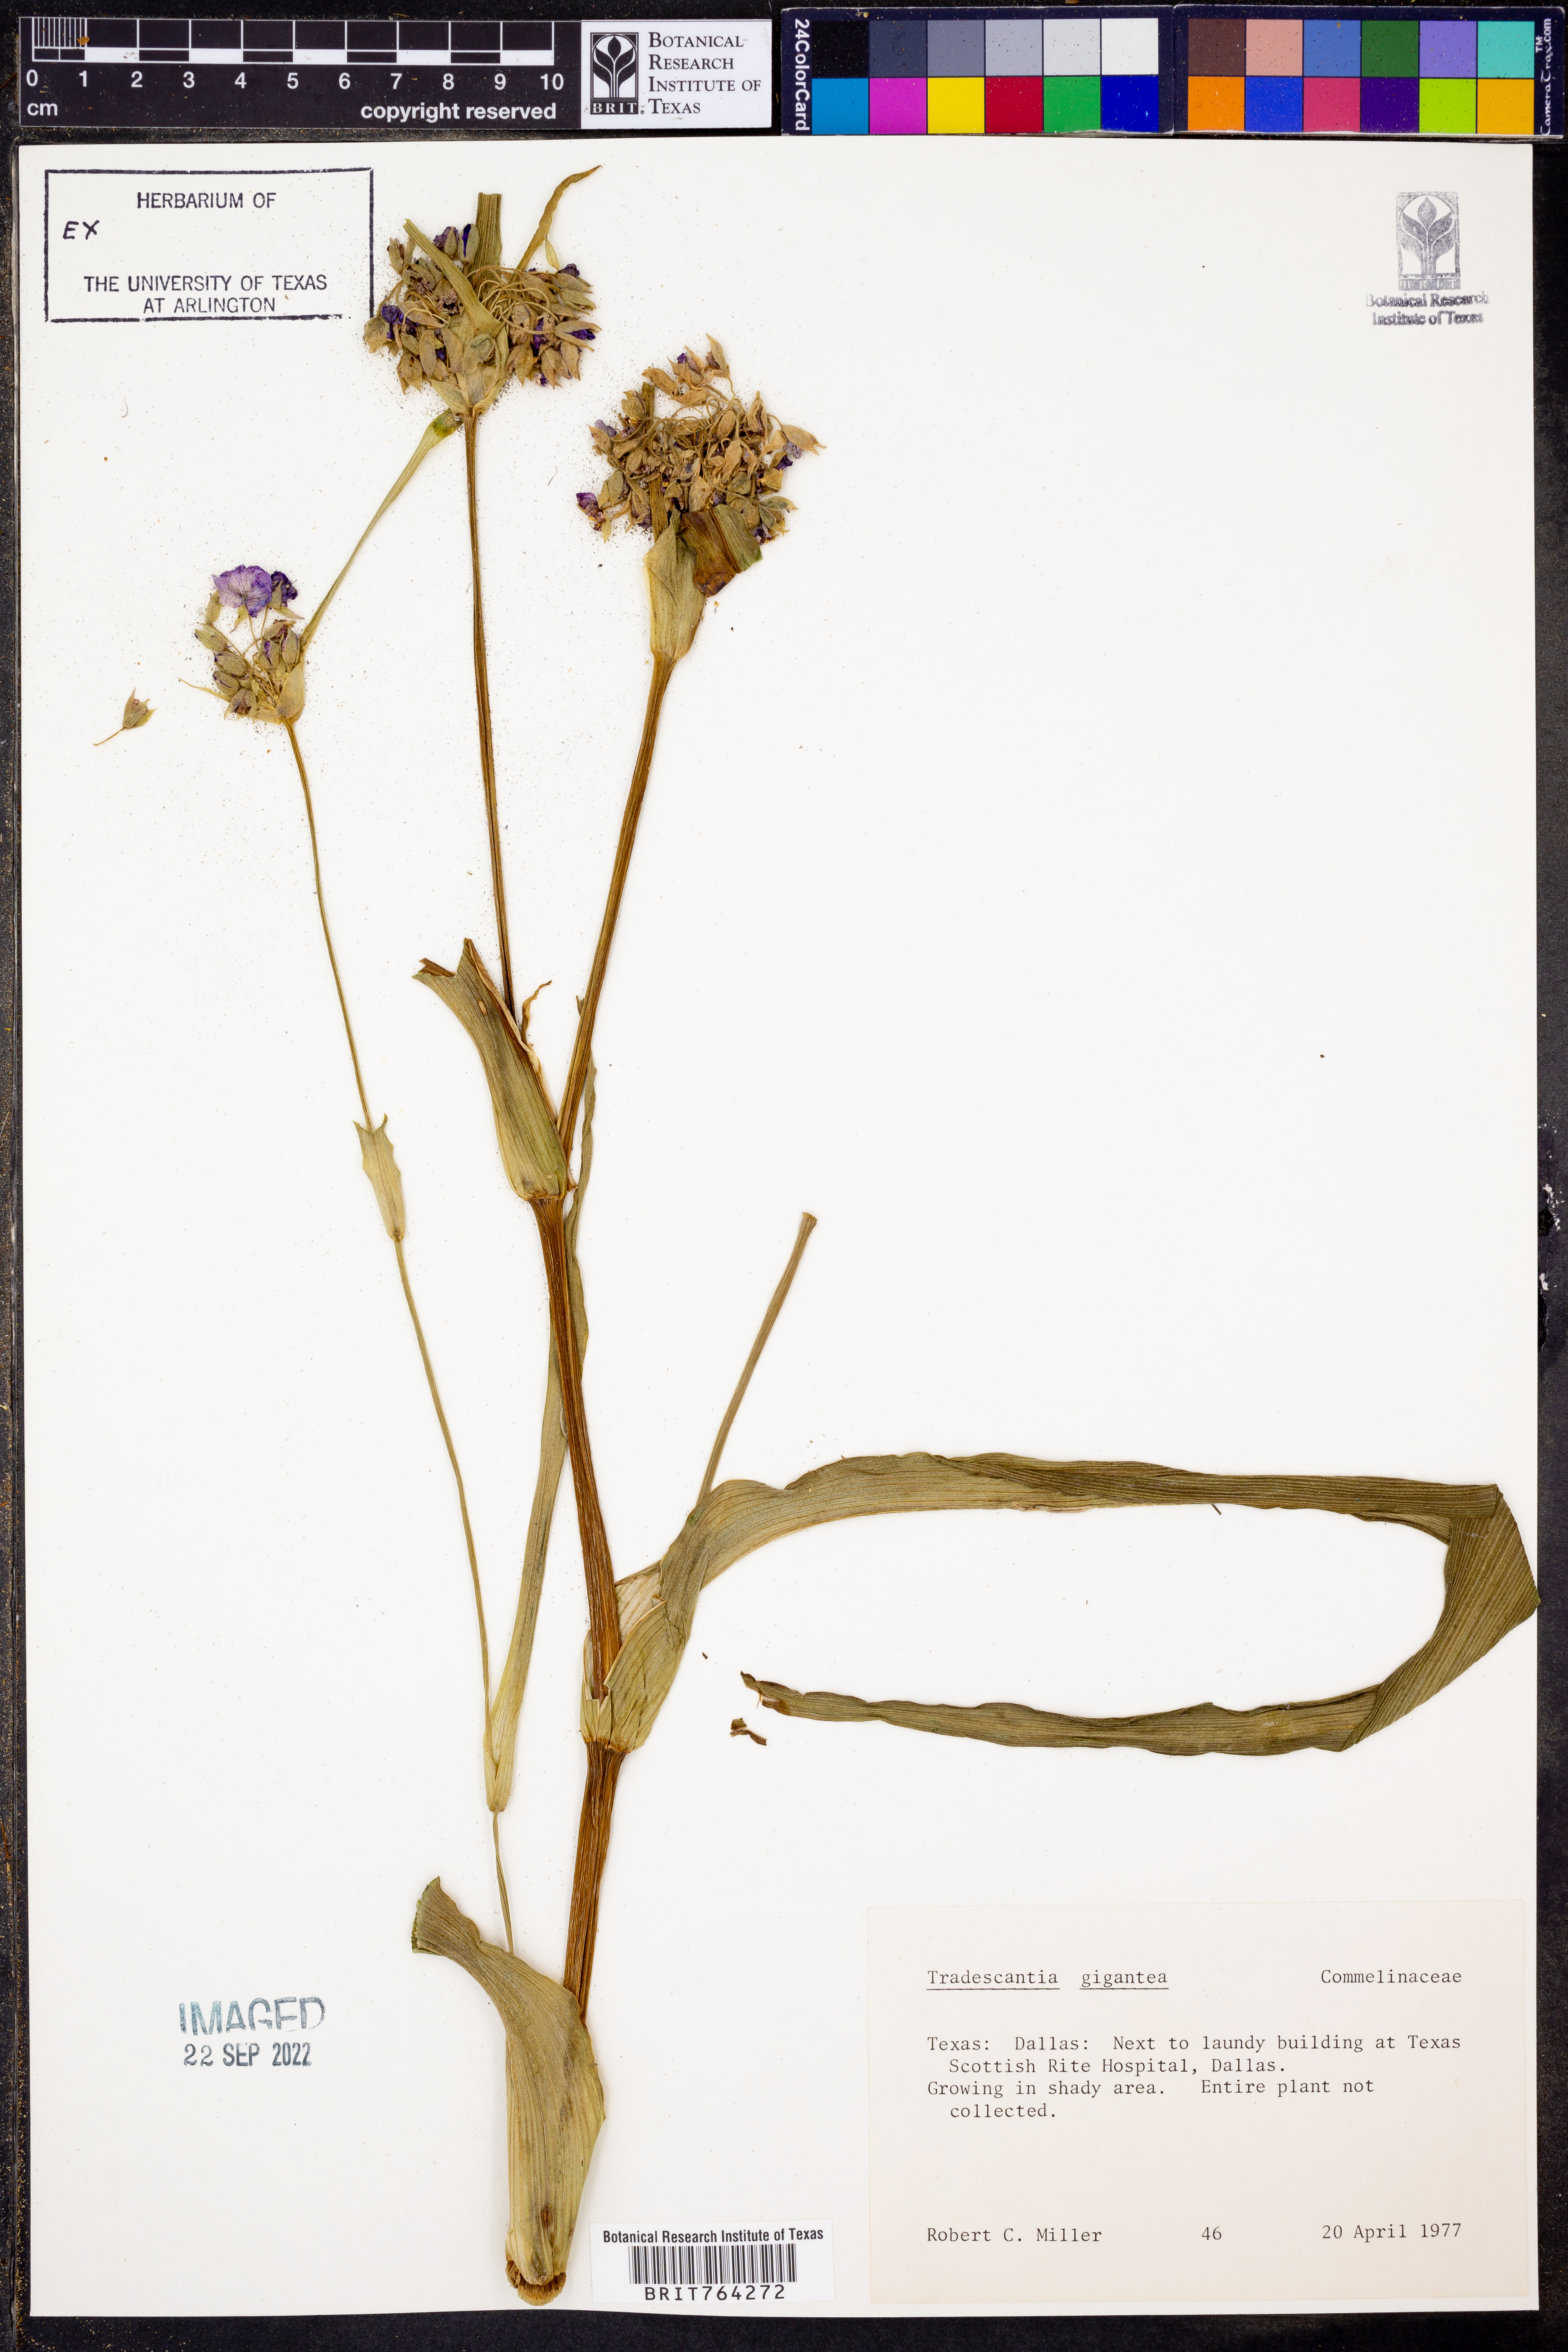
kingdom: Plantae
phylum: Tracheophyta
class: Liliopsida
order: Commelinales
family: Commelinaceae
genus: Tradescantia
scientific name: Tradescantia gigantea
